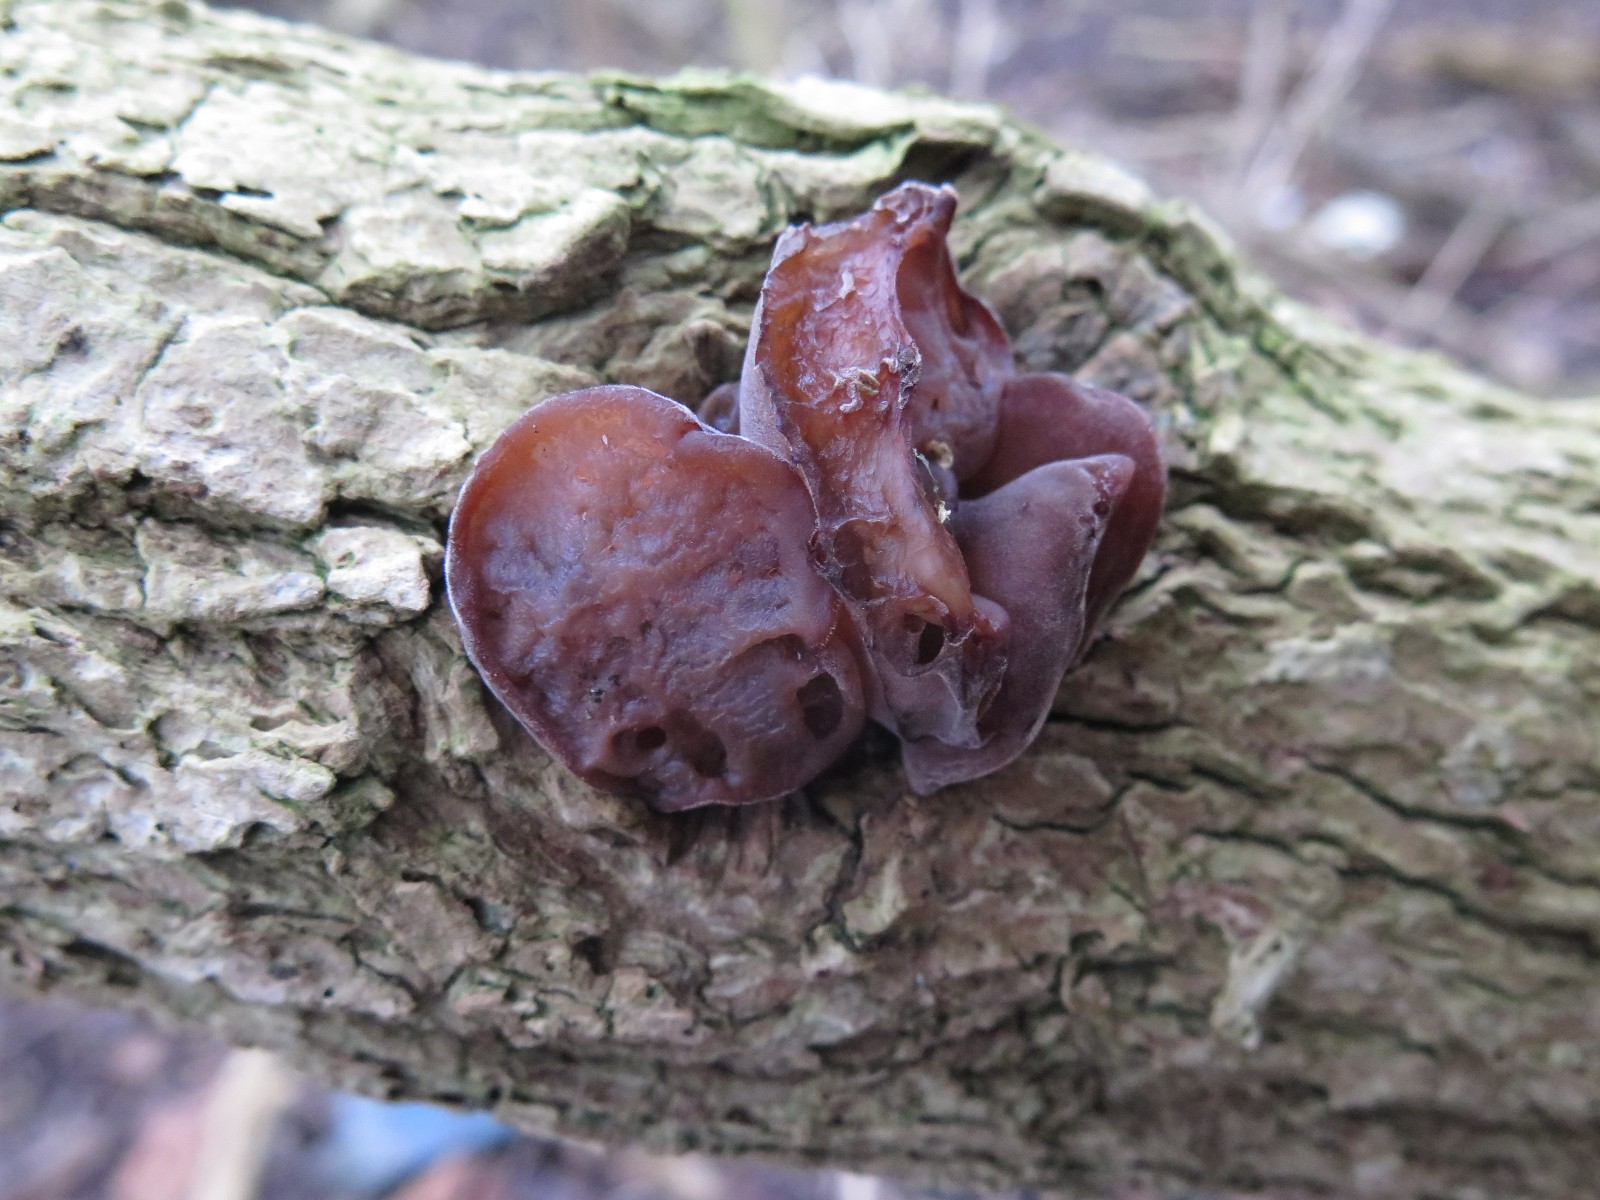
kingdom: Fungi
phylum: Basidiomycota
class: Agaricomycetes
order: Auriculariales
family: Auriculariaceae
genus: Auricularia
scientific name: Auricularia auricula-judae
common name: almindelig judasøre
